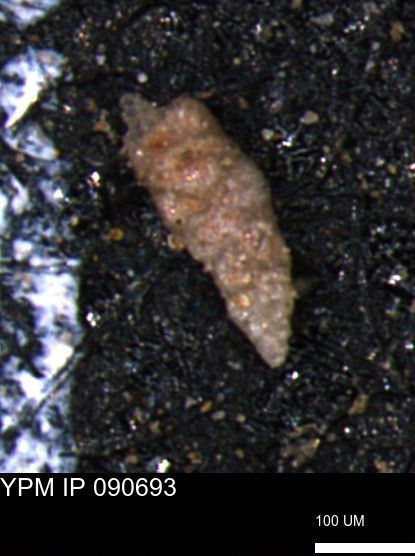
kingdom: Chromista
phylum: Foraminifera
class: Globothalamea
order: Loftusiida
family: Ataxophragmiidae
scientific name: Ataxophragmiidae
